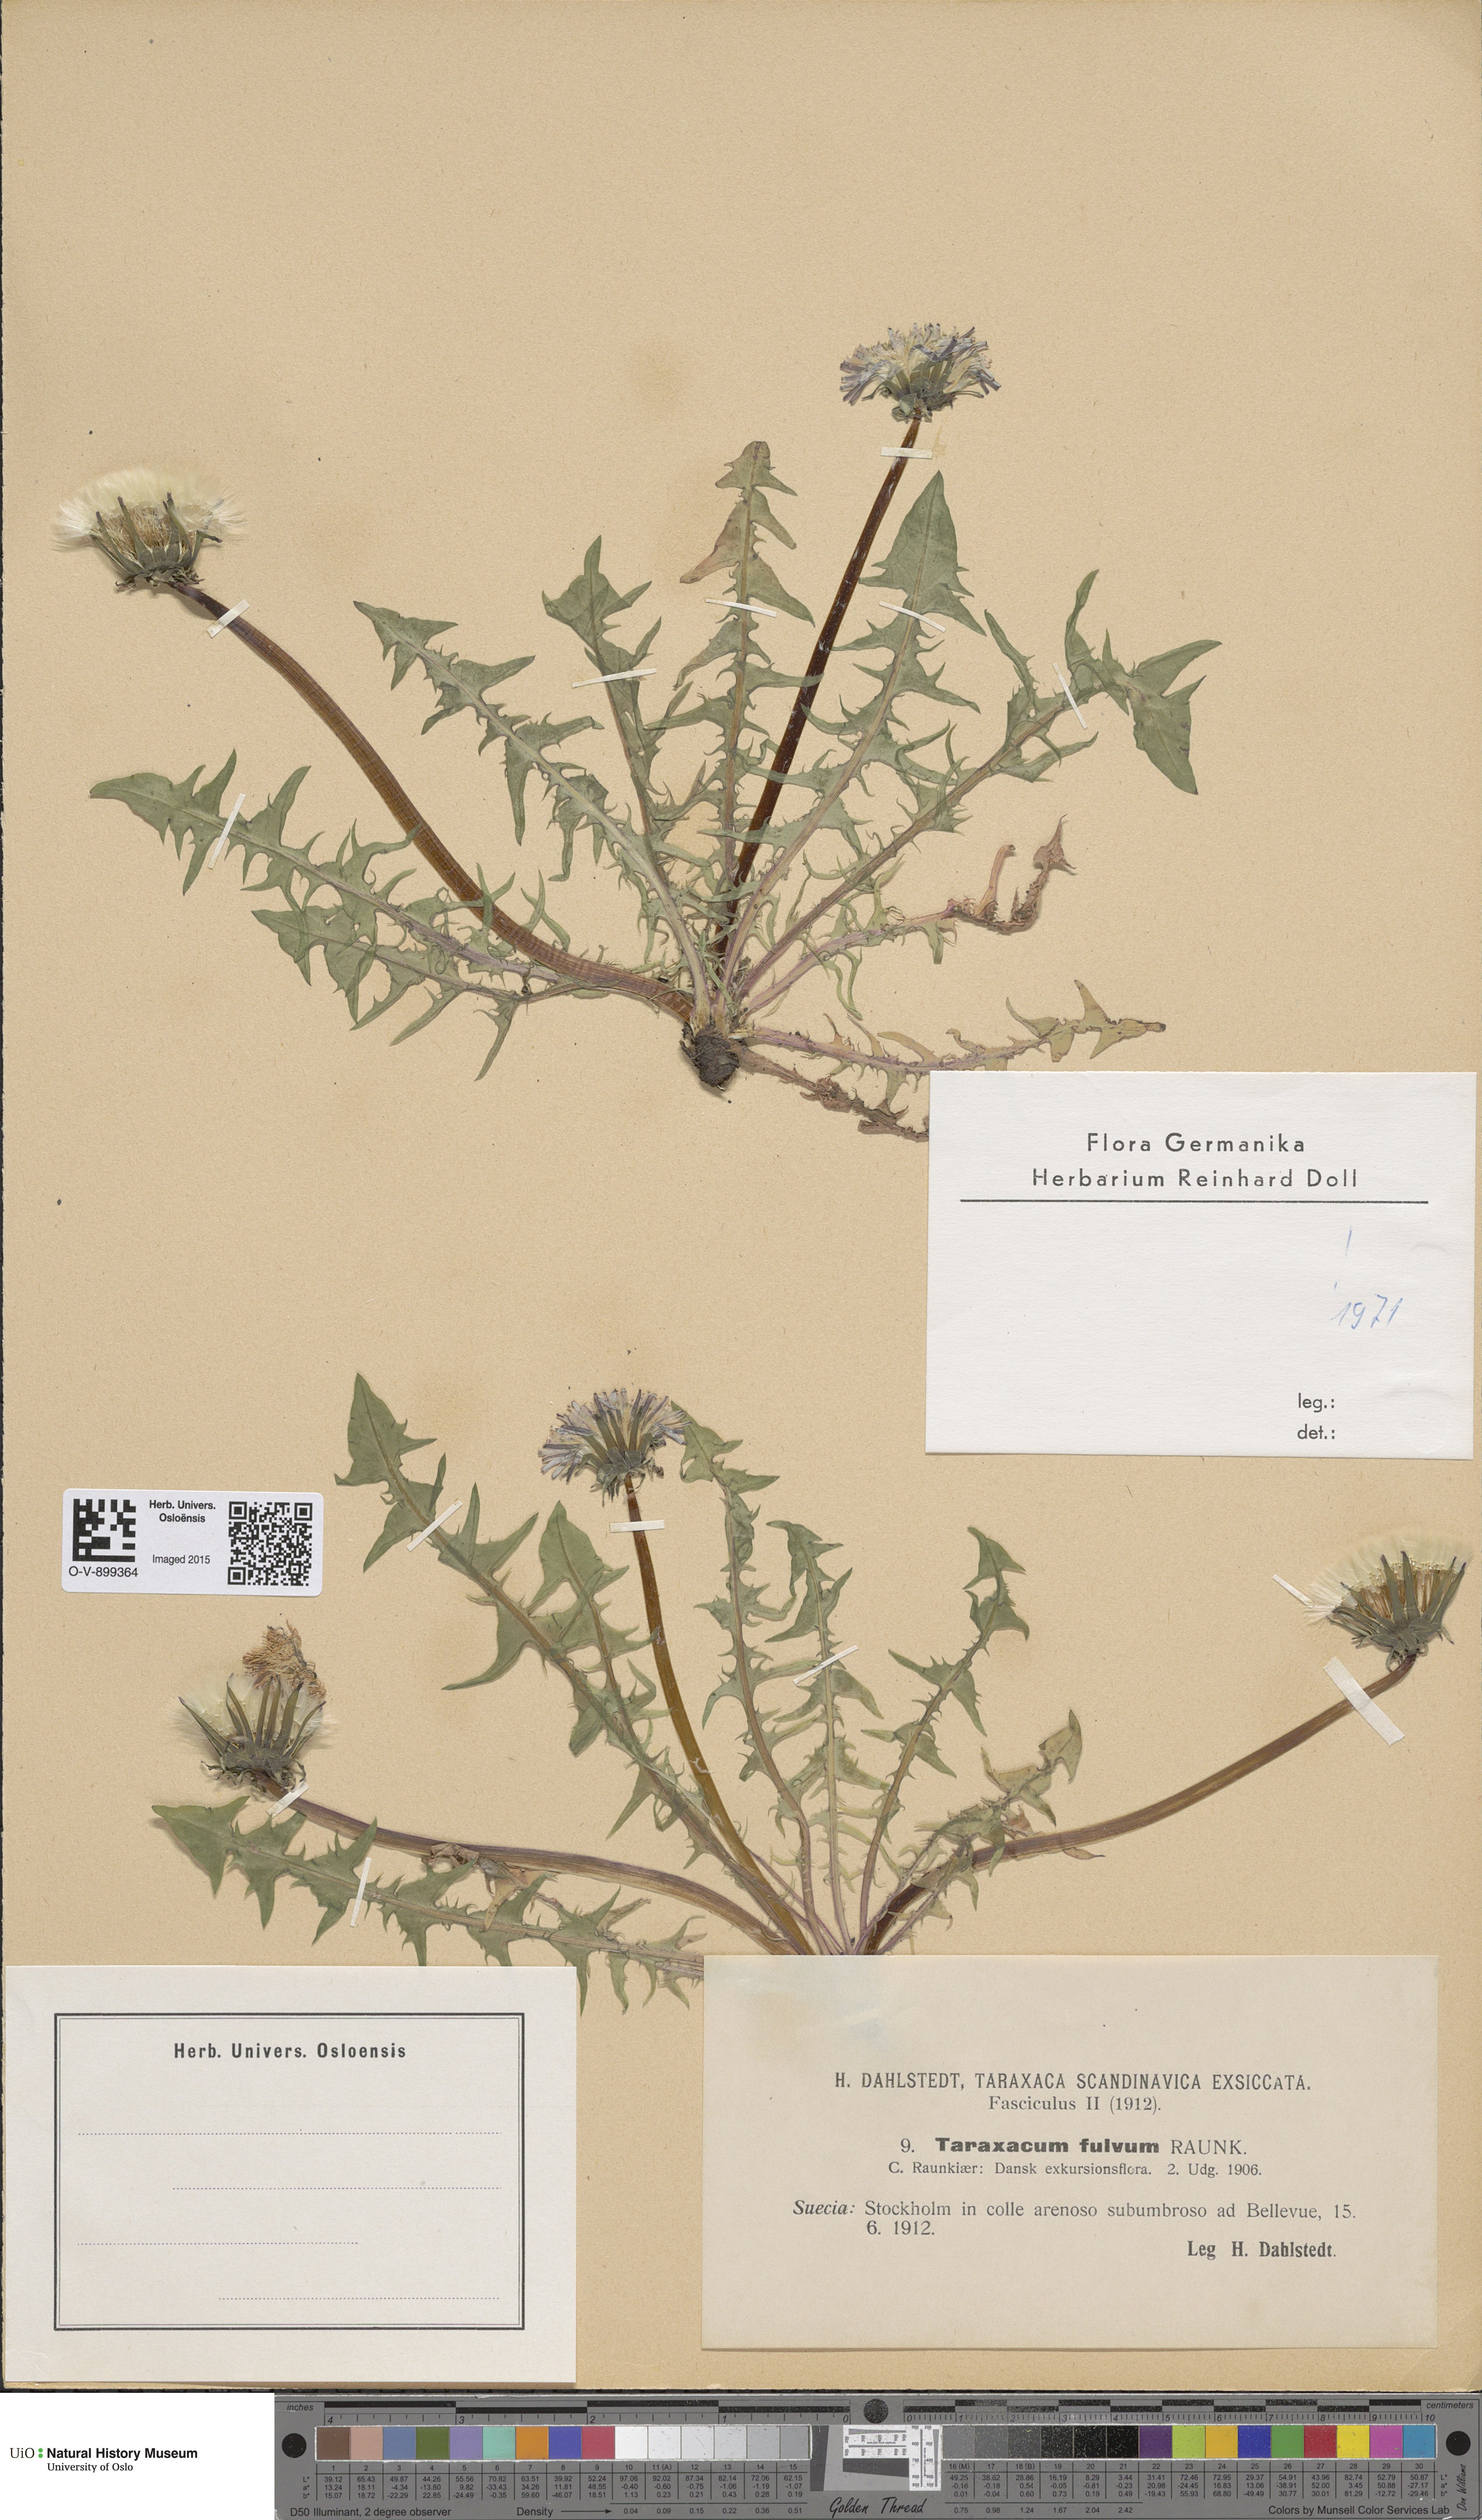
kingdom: Plantae
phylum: Tracheophyta
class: Magnoliopsida
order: Asterales
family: Asteraceae
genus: Taraxacum
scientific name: Taraxacum fulvum
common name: Cinnamon-fruited dandelion
